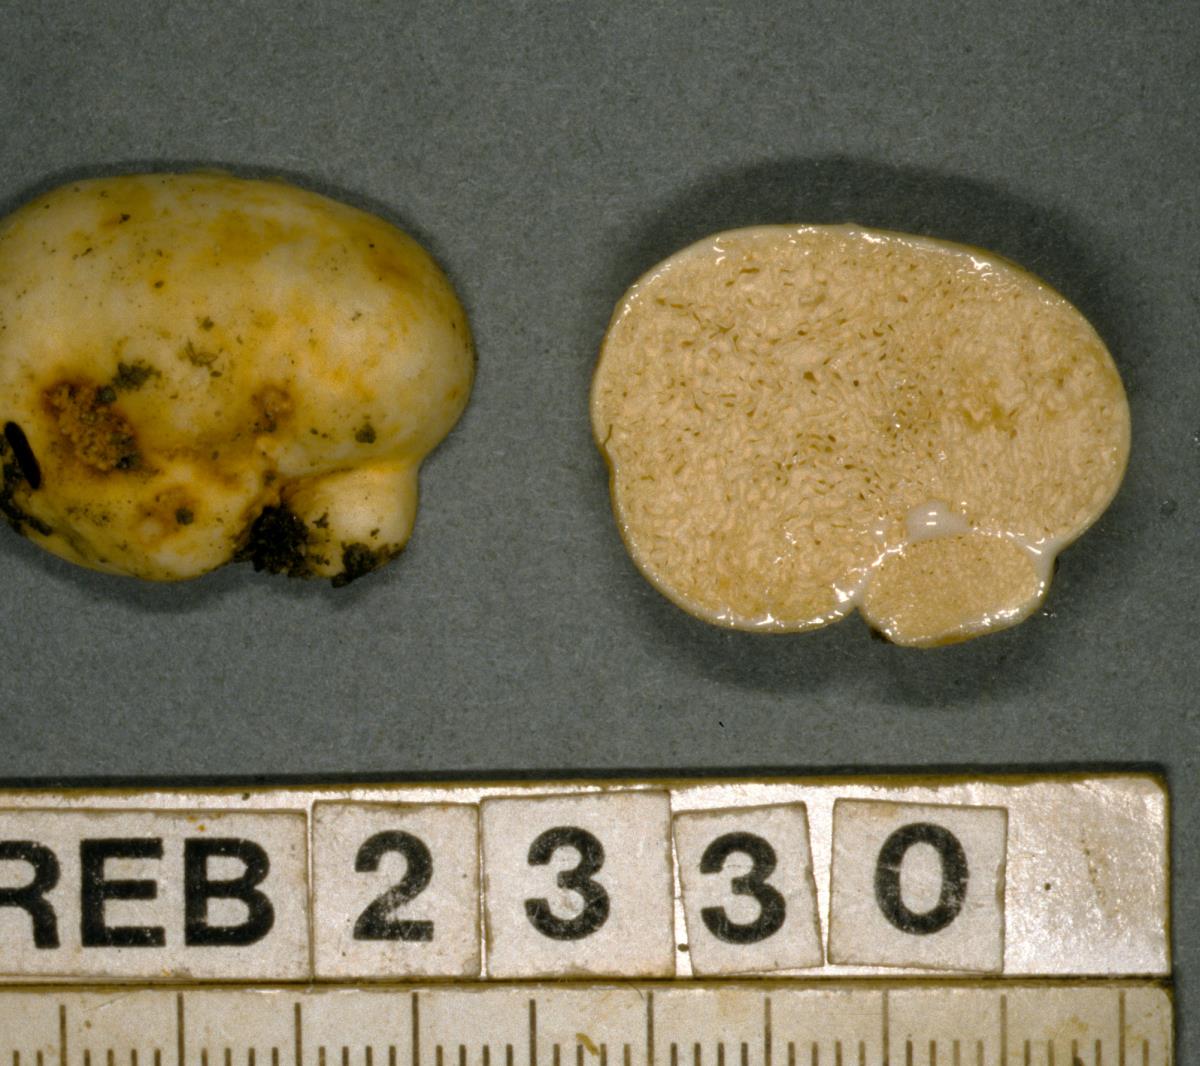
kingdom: Fungi
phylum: Basidiomycota
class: Agaricomycetes
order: Russulales
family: Russulaceae
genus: Zelleromyces
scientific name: Zelleromyces
